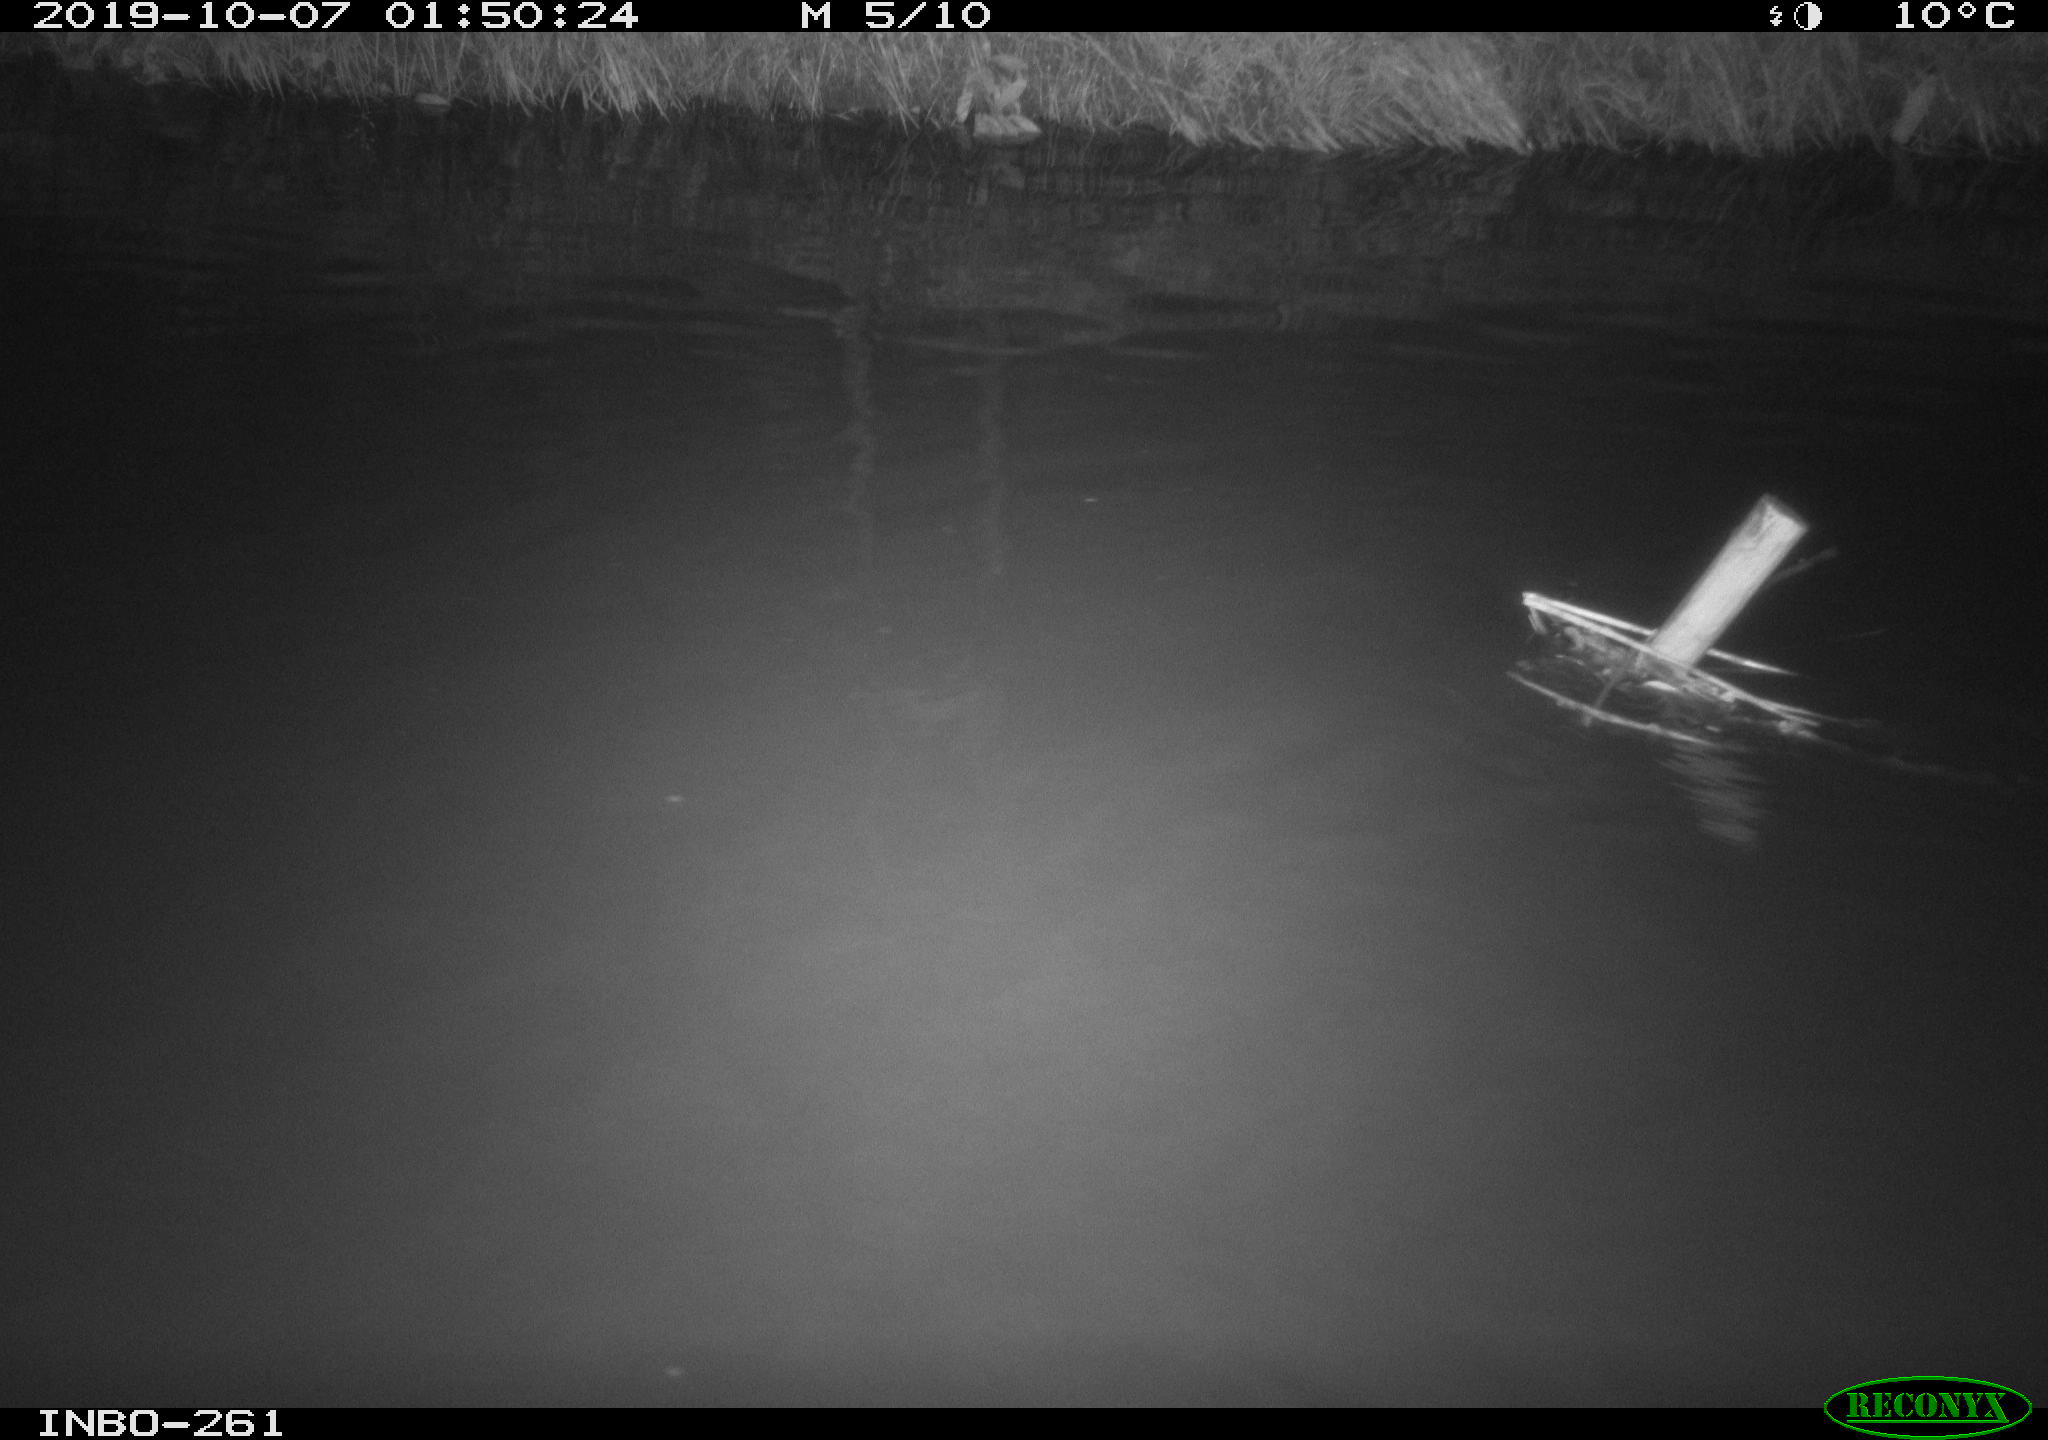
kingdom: Animalia
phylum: Chordata
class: Aves
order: Anseriformes
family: Anatidae
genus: Anas
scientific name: Anas platyrhynchos
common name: Mallard
